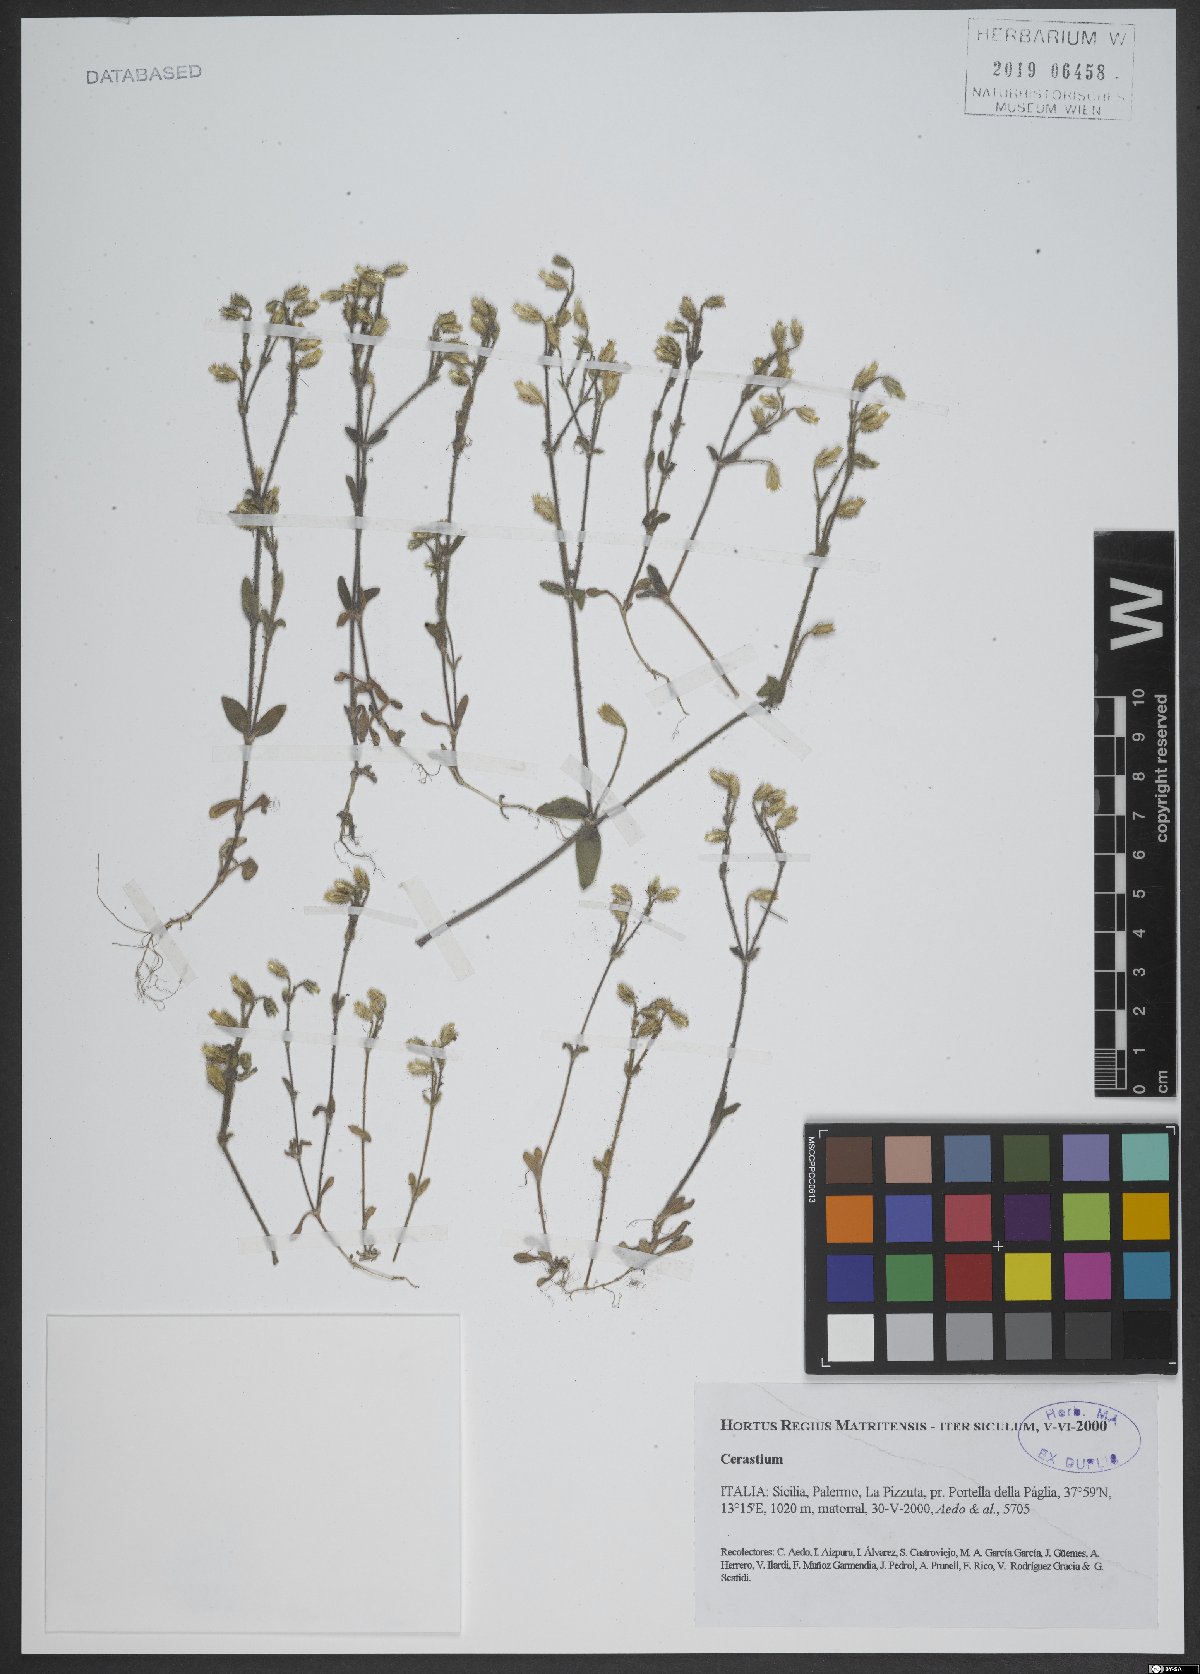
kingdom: Plantae
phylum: Tracheophyta
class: Magnoliopsida
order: Caryophyllales
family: Caryophyllaceae
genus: Cerastium
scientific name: Cerastium
